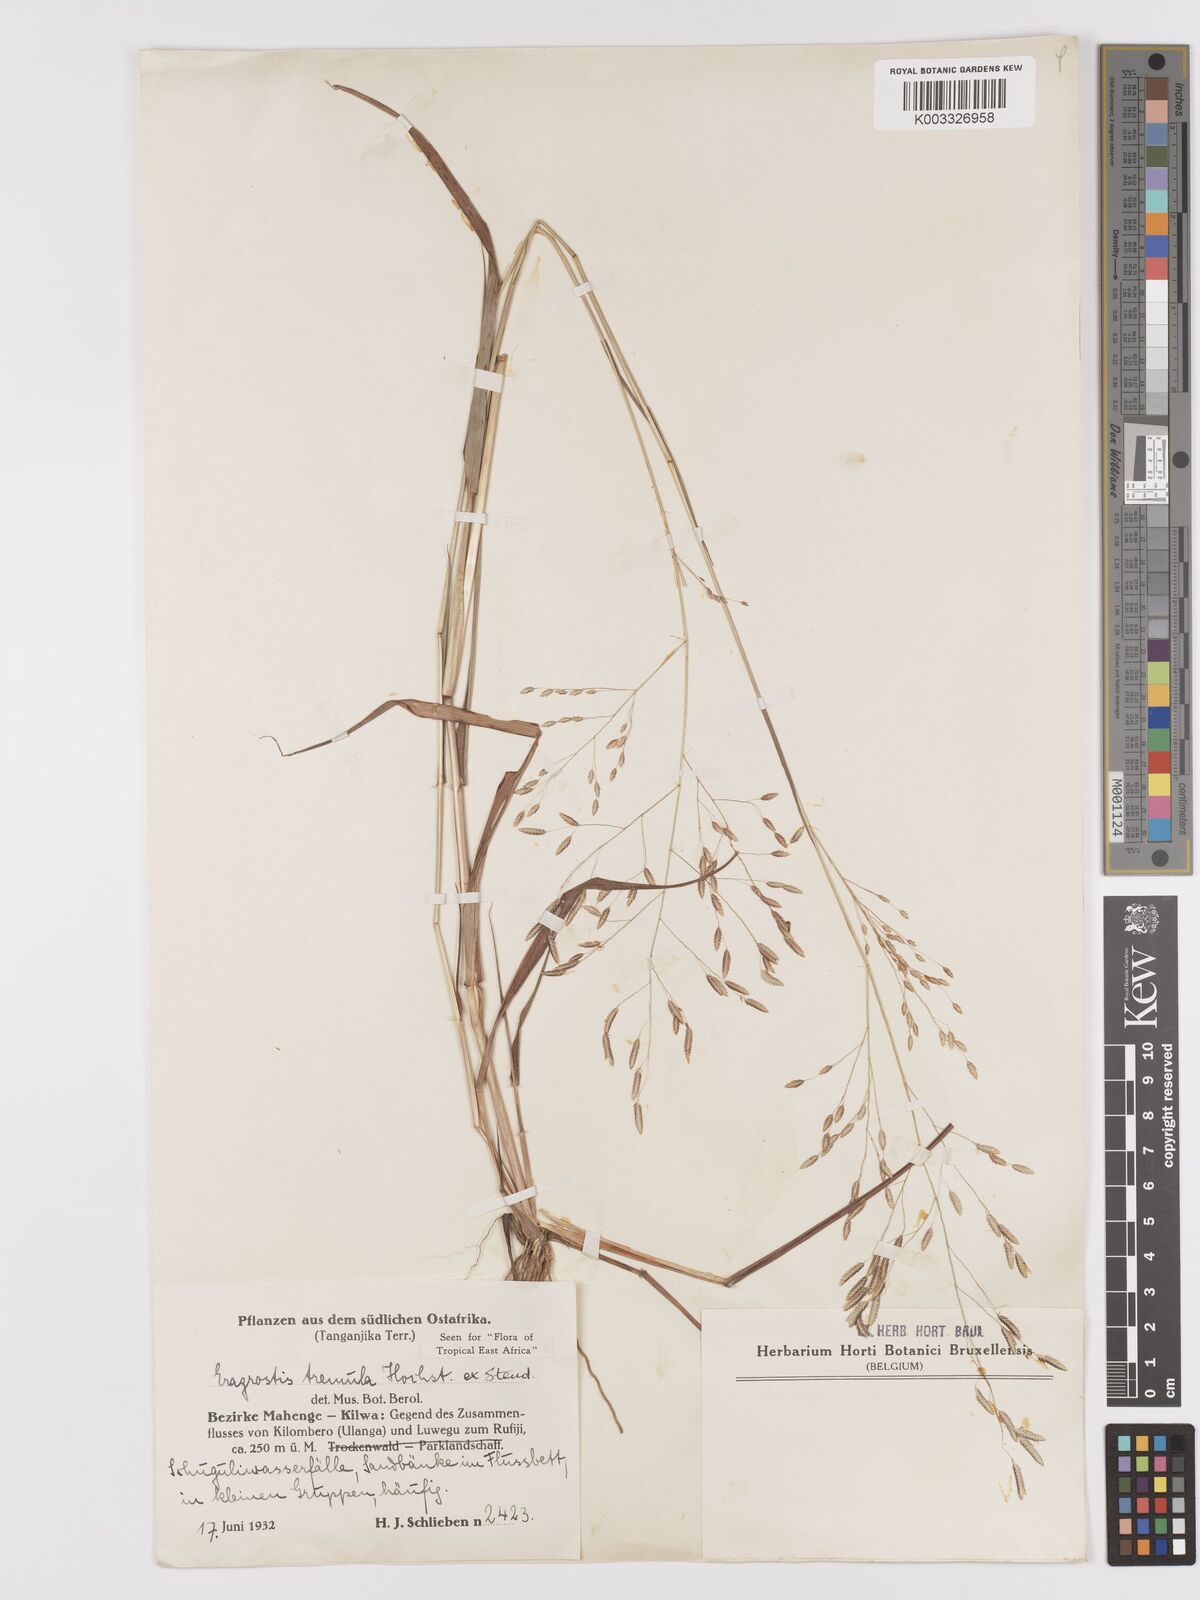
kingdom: Plantae
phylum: Tracheophyta
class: Liliopsida
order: Poales
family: Poaceae
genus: Eragrostis
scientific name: Eragrostis tremula
